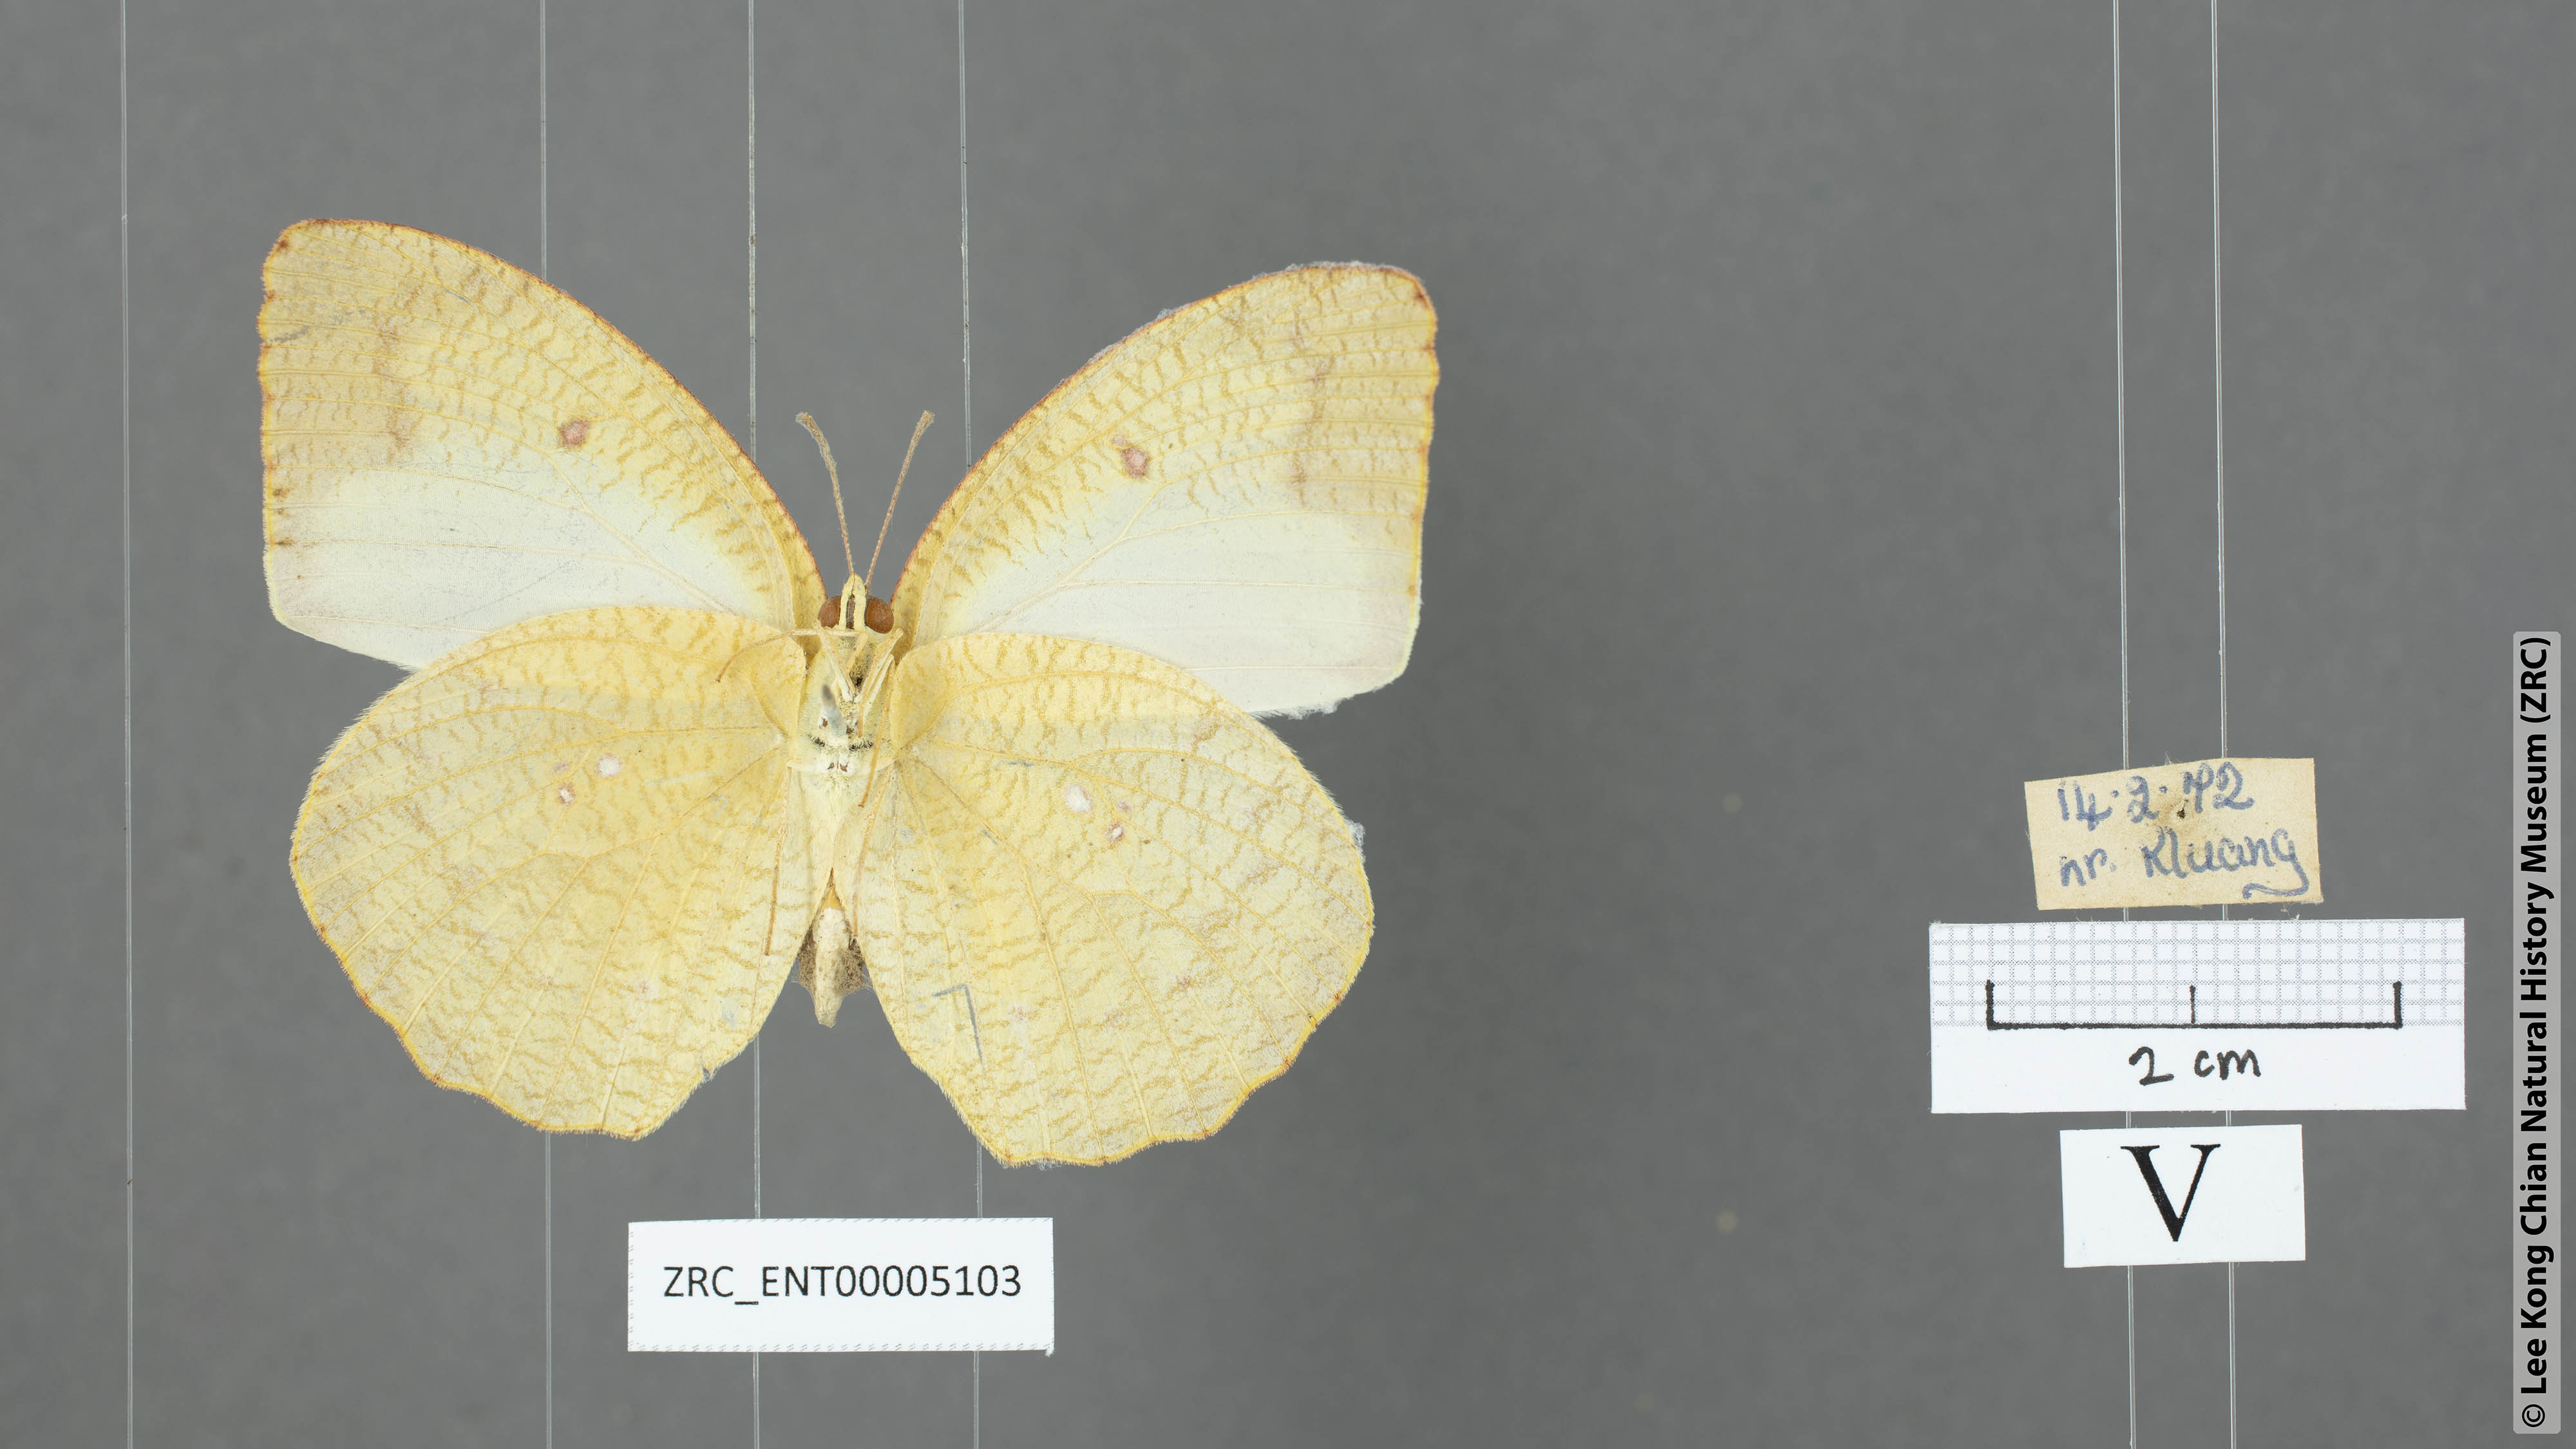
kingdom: Animalia
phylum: Arthropoda
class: Insecta
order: Lepidoptera
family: Pieridae
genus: Catopsilia
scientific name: Catopsilia pyranthe
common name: Mottled emigrant
